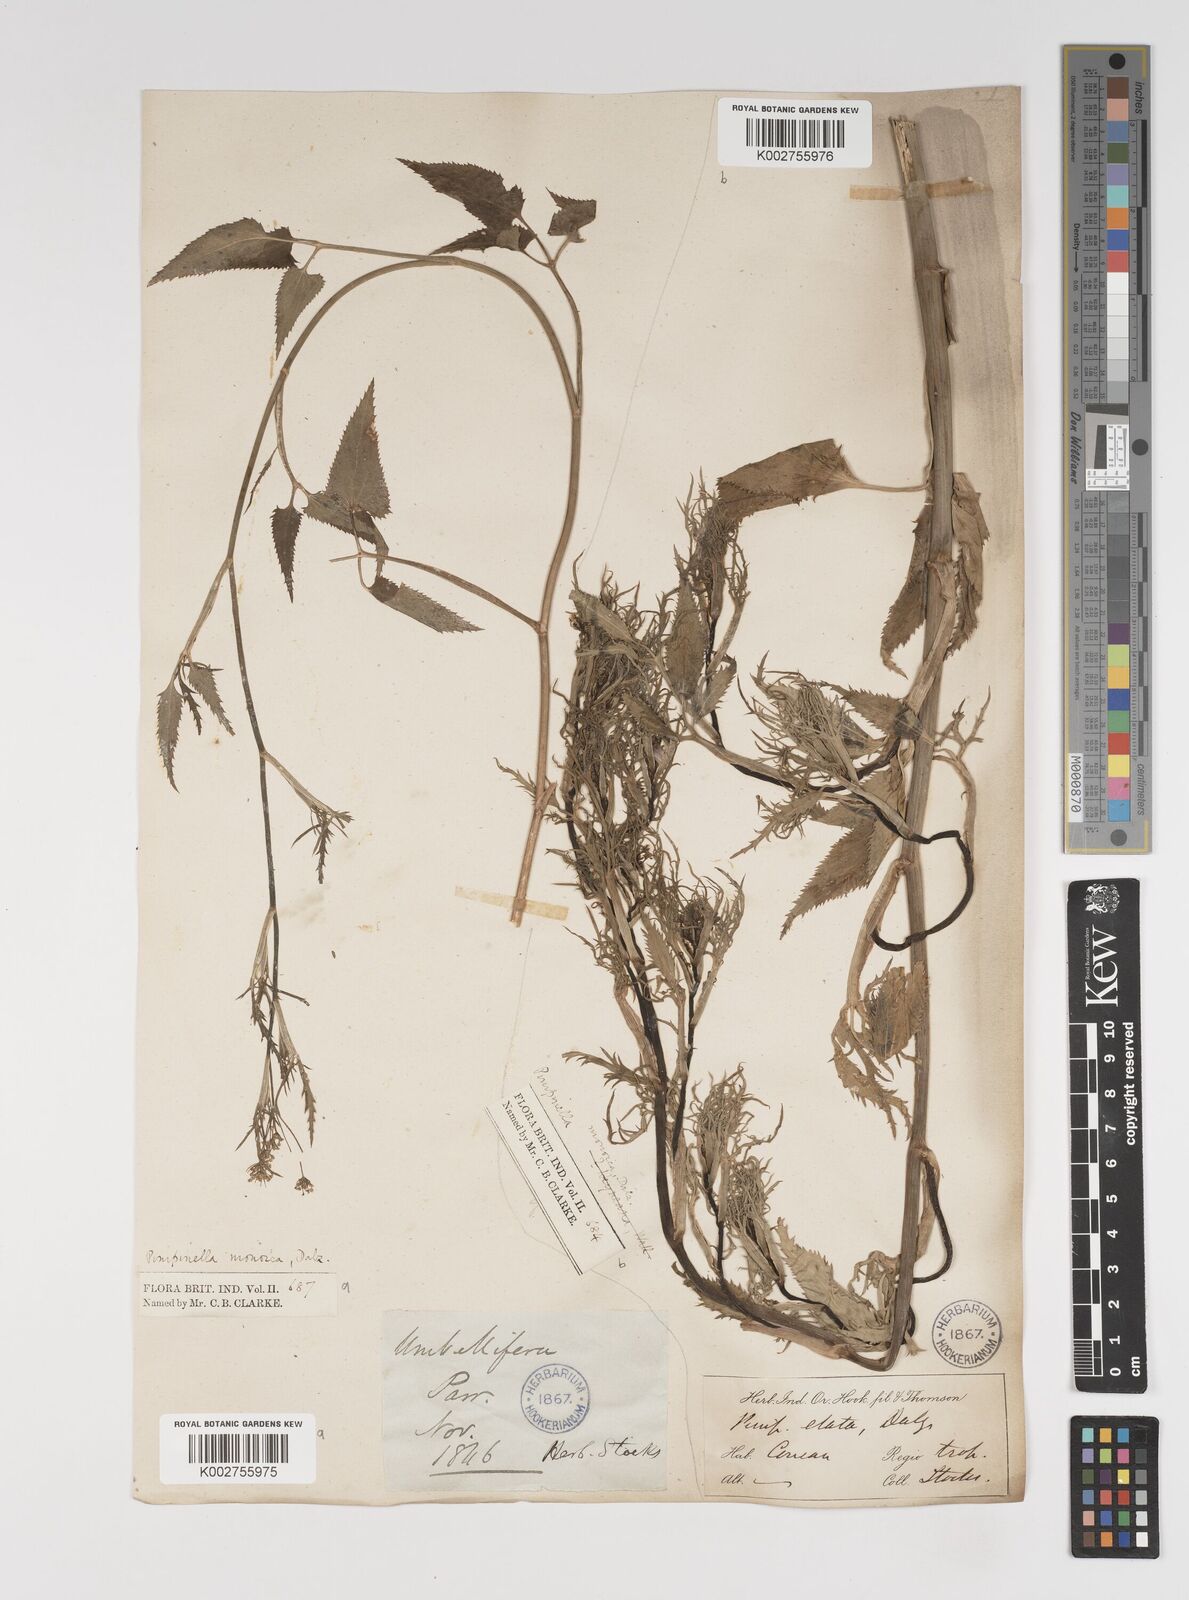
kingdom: Plantae
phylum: Tracheophyta
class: Magnoliopsida
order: Apiales
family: Apiaceae
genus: Pimpinella
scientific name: Pimpinella wallichiana
